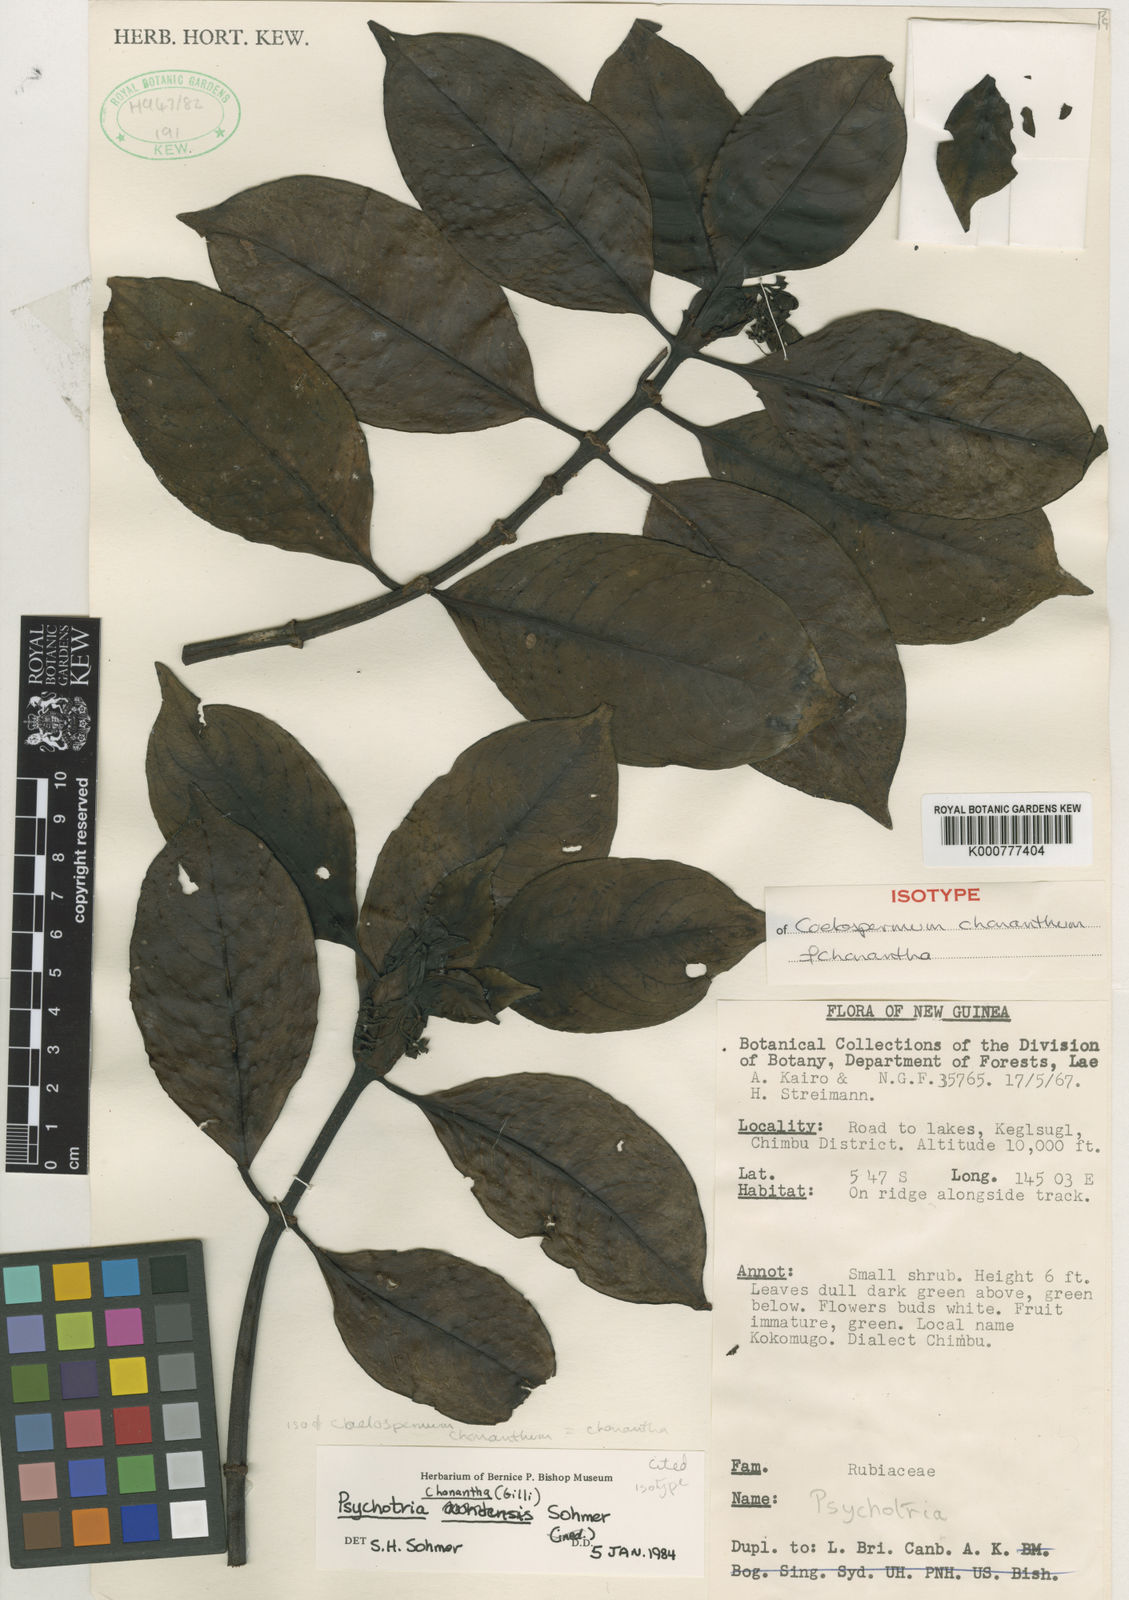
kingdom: Plantae
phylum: Tracheophyta
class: Magnoliopsida
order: Gentianales
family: Rubiaceae
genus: Psychotria
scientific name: Psychotria chonantha
